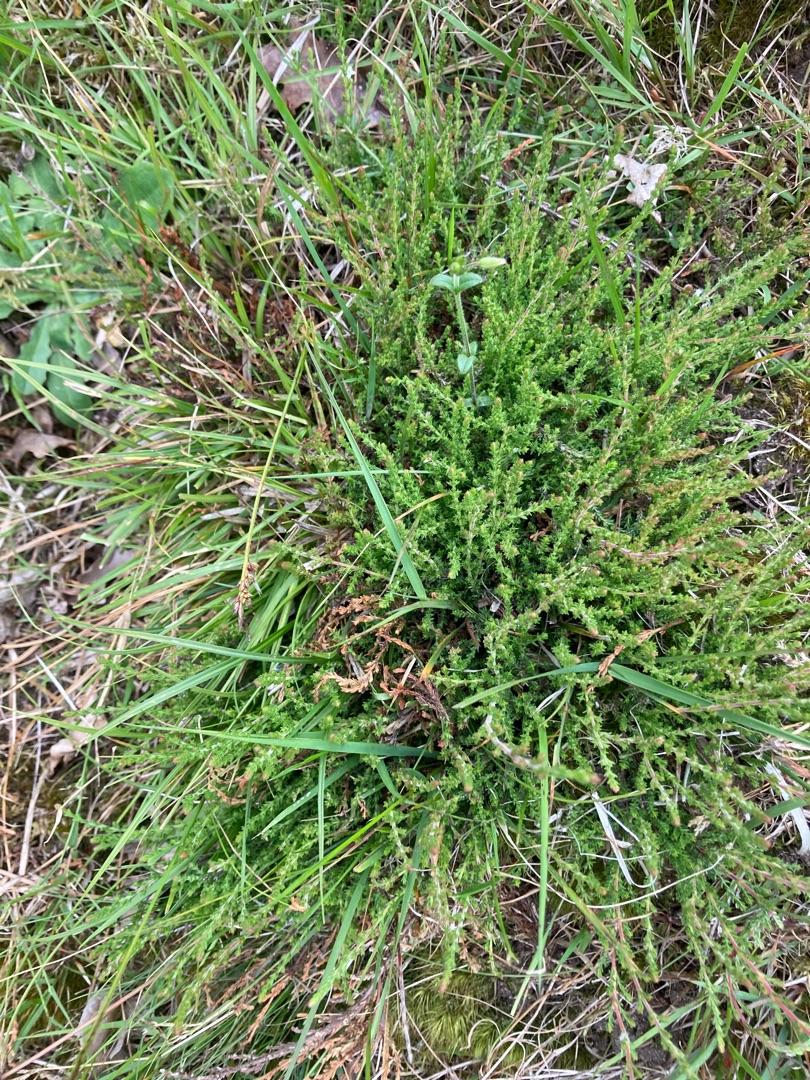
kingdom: Plantae
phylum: Tracheophyta
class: Magnoliopsida
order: Ericales
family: Ericaceae
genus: Calluna
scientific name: Calluna vulgaris
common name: Hedelyng
